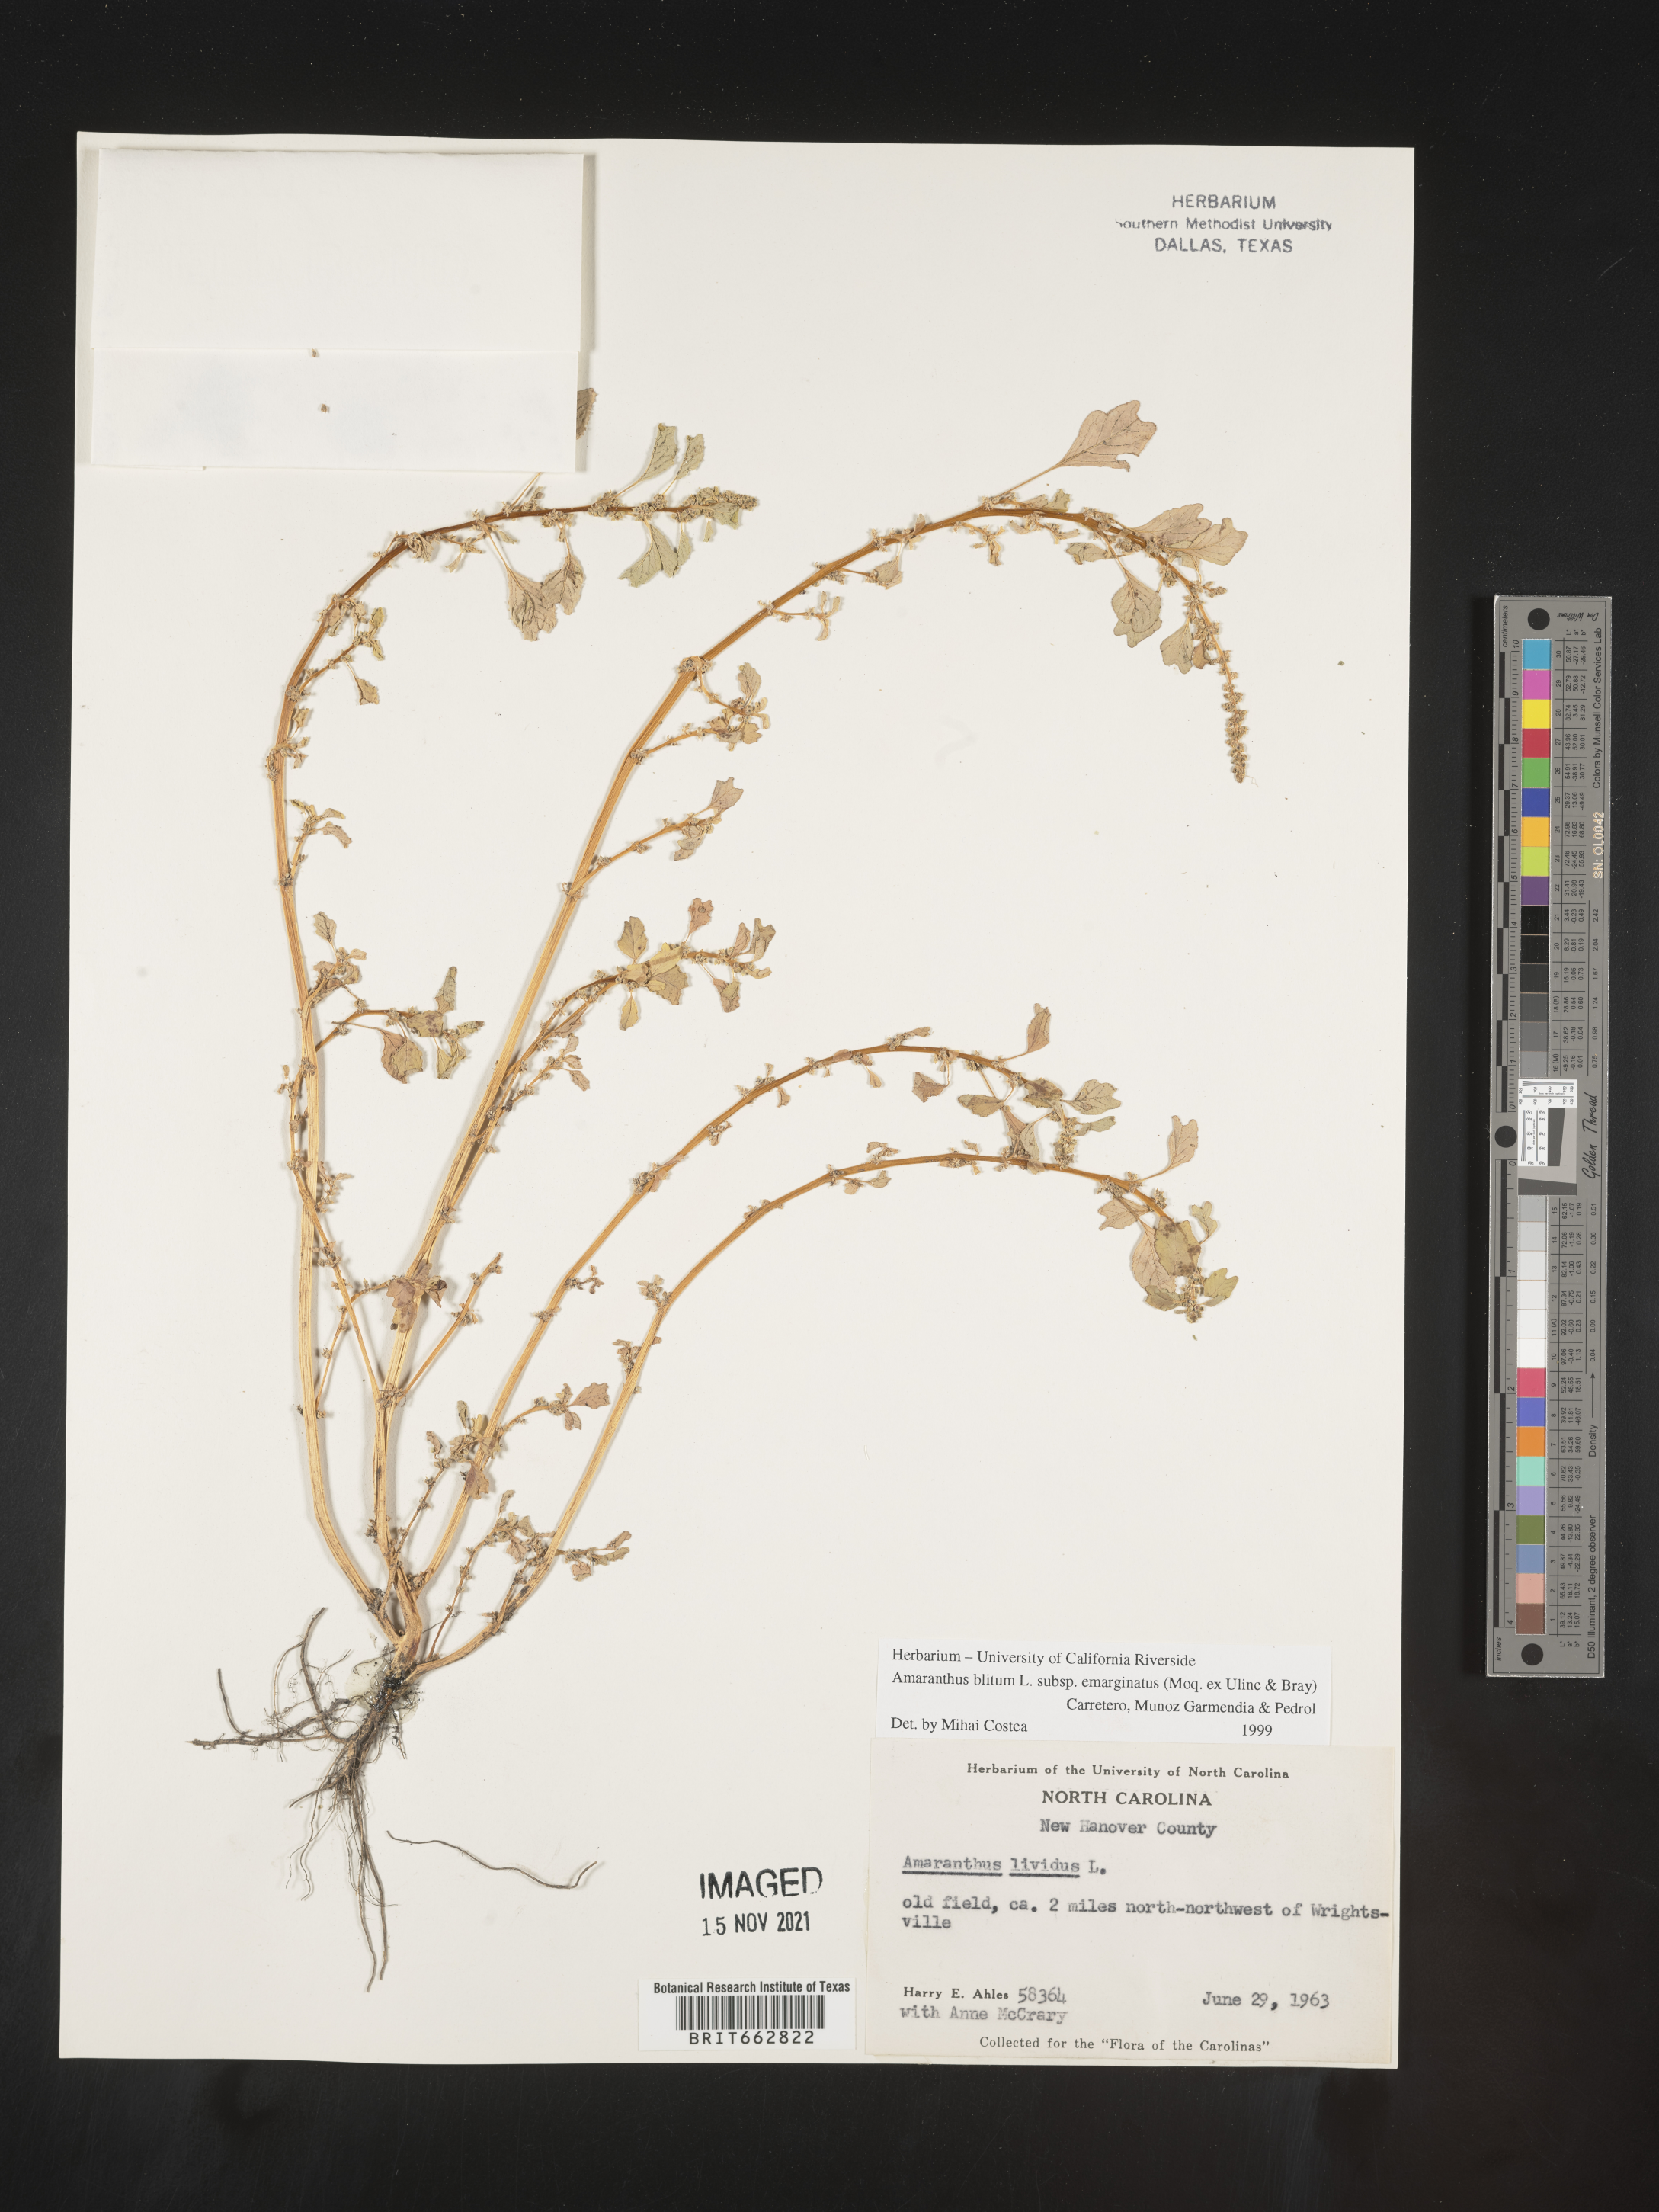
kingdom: Plantae
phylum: Tracheophyta
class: Magnoliopsida
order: Caryophyllales
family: Amaranthaceae
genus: Amaranthus
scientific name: Amaranthus blitum
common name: Purple amaranth
